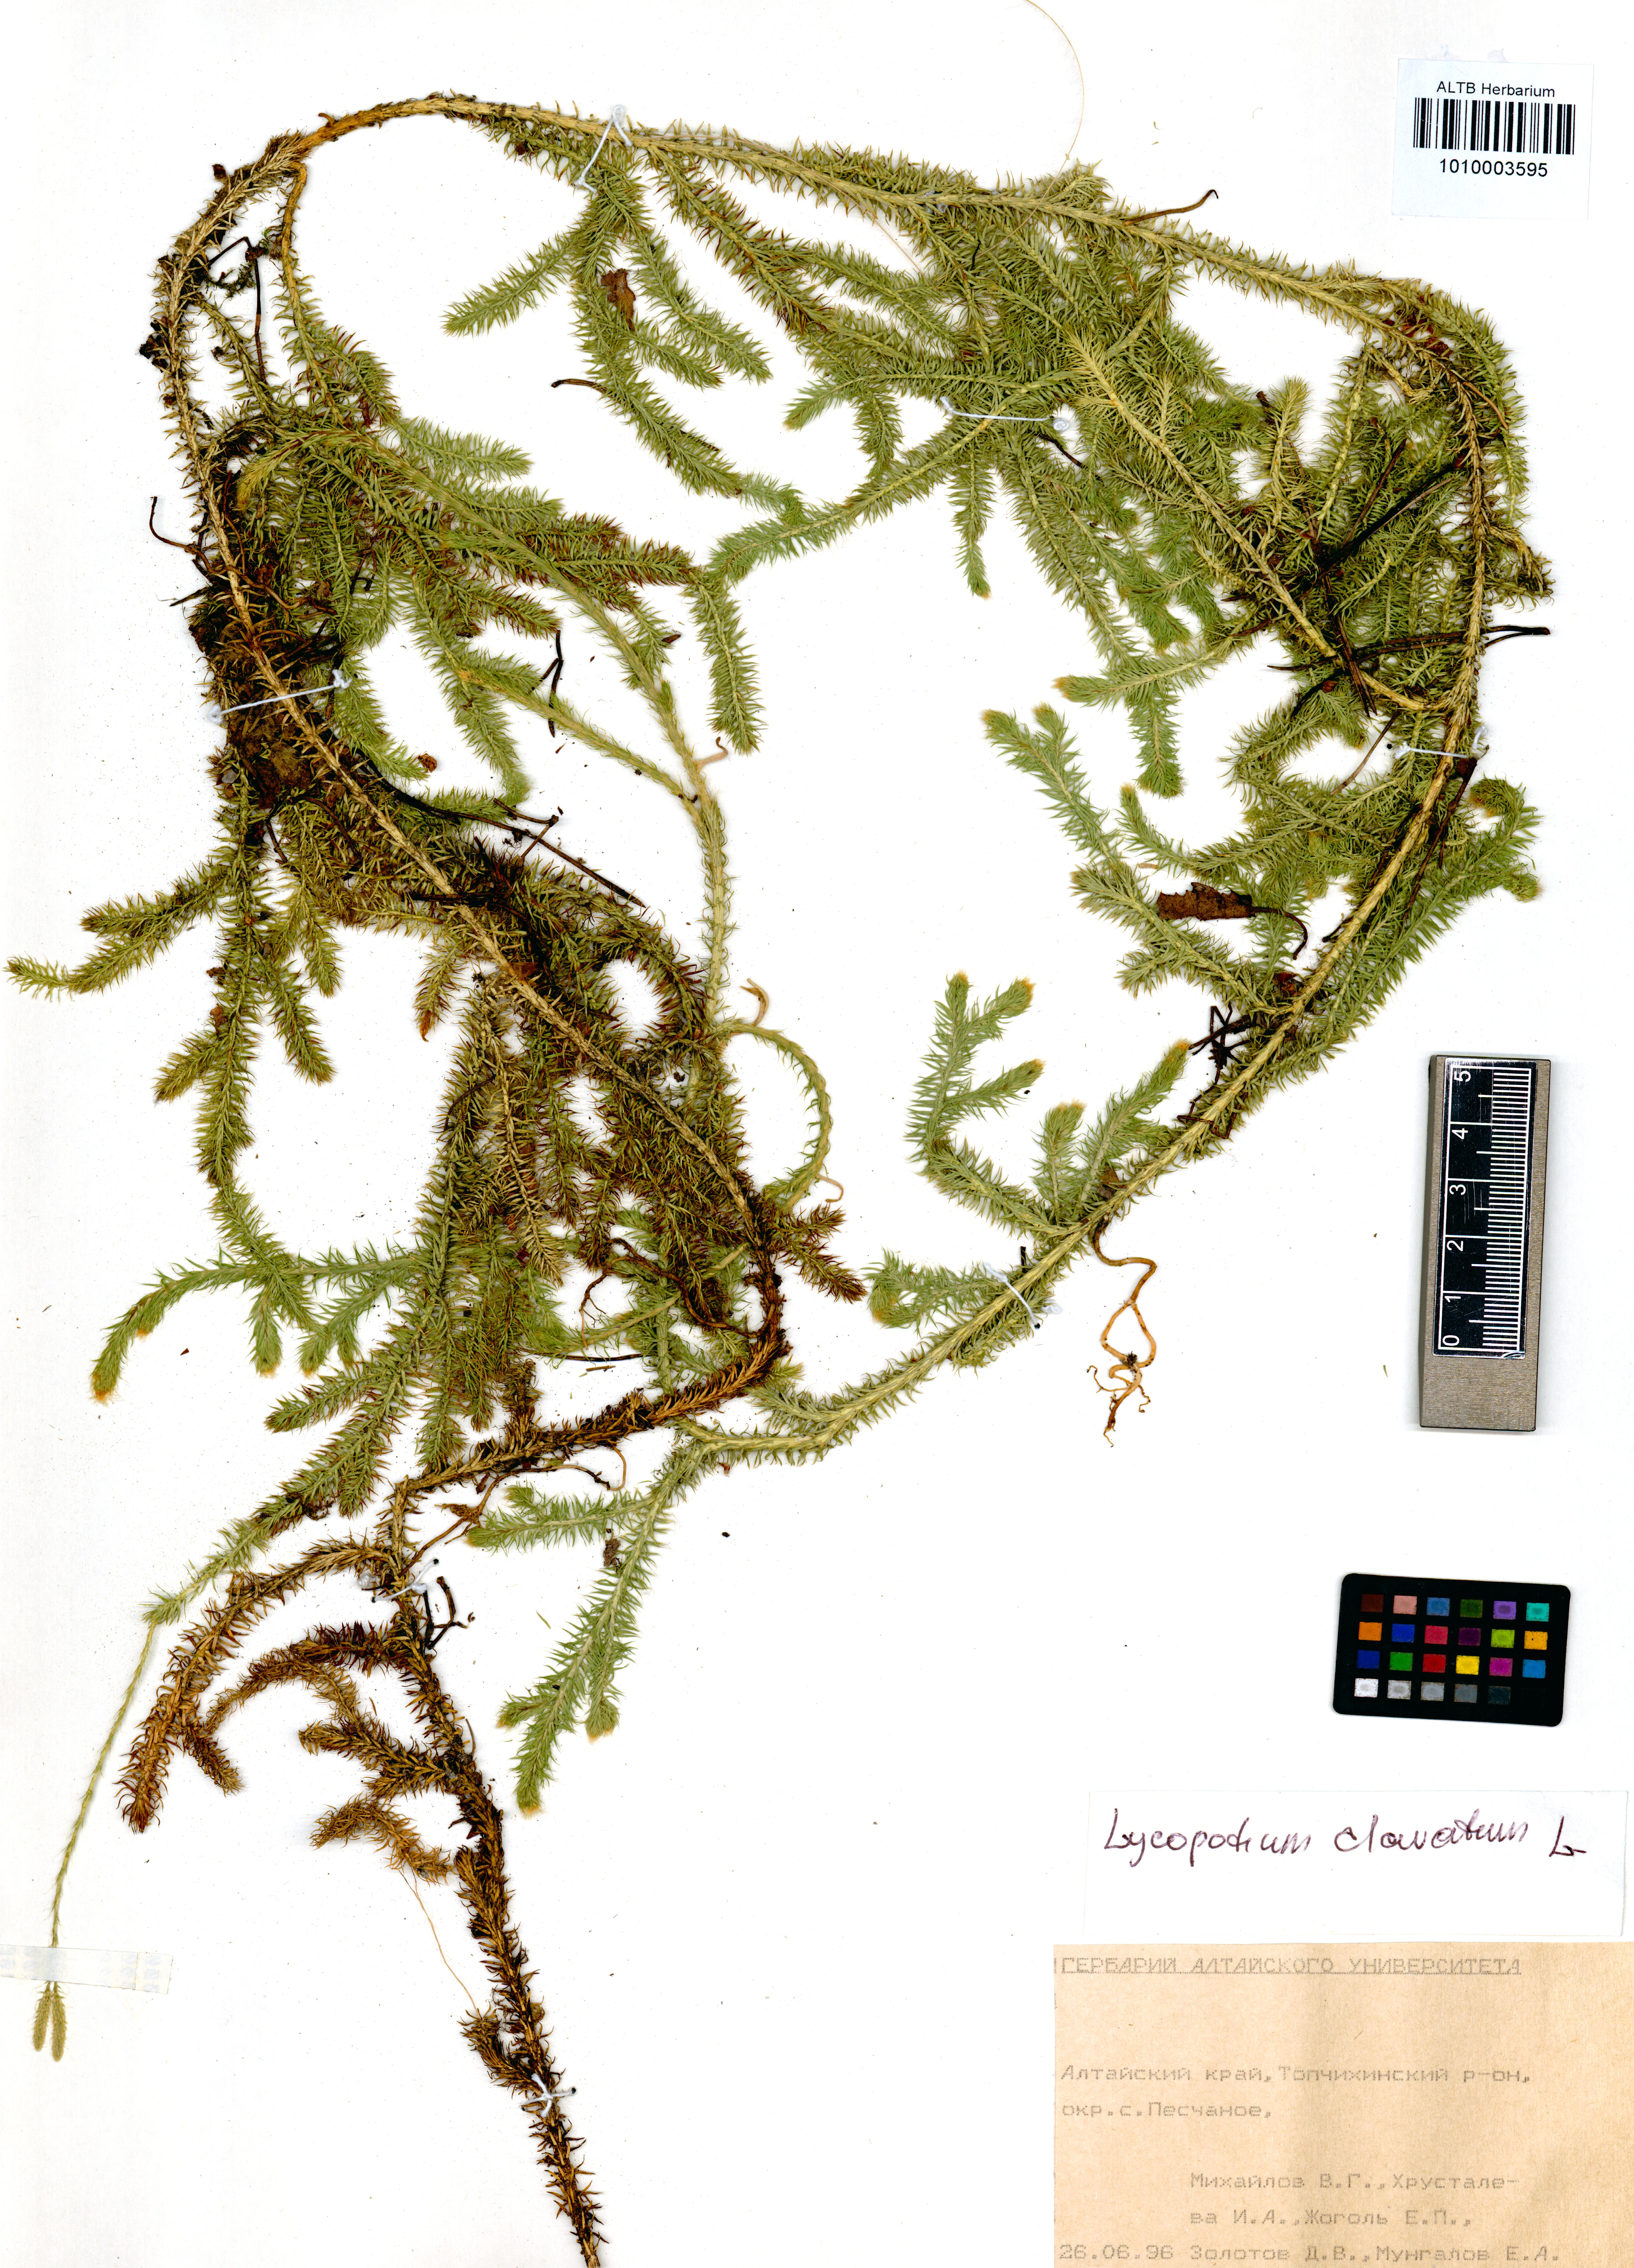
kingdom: Plantae
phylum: Tracheophyta
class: Lycopodiopsida
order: Lycopodiales
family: Lycopodiaceae
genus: Lycopodium
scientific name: Lycopodium clavatum
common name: Stag's-horn clubmoss
